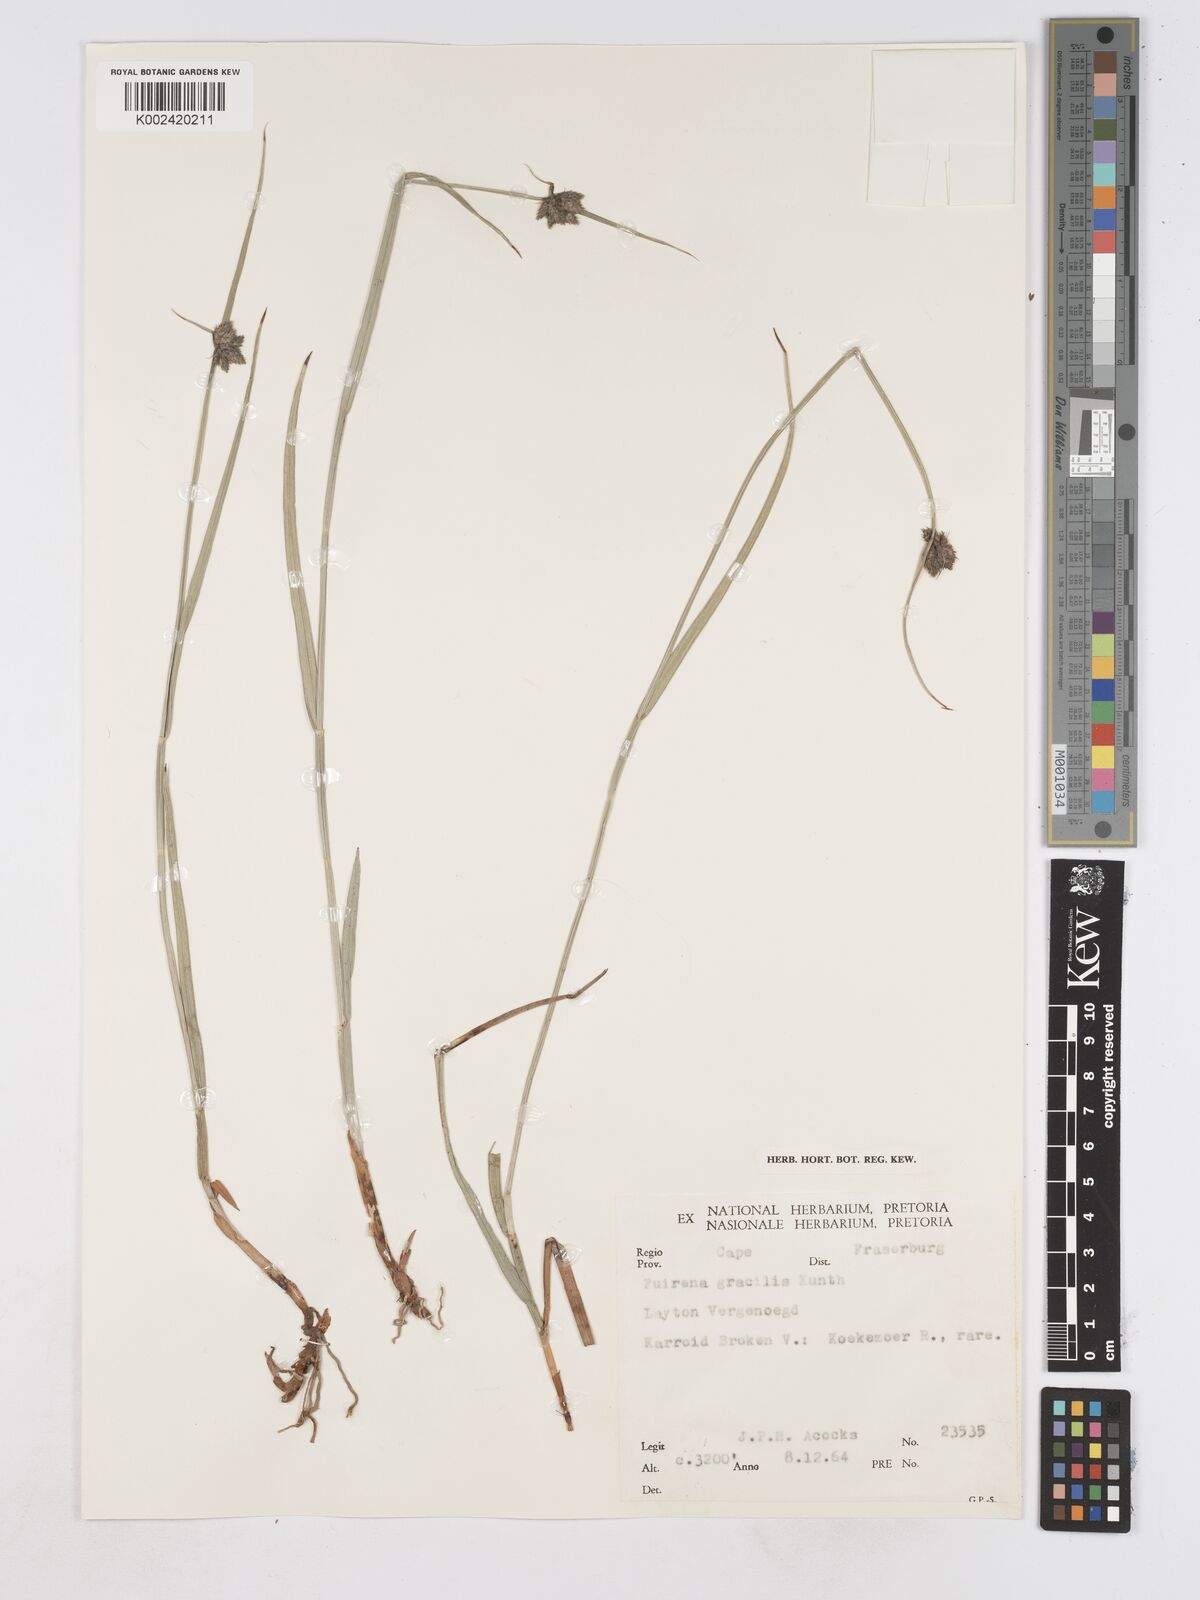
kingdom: Plantae
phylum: Tracheophyta
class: Liliopsida
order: Poales
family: Cyperaceae
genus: Fuirena
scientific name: Fuirena coerulescens
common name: Blue umbrella-sedge
